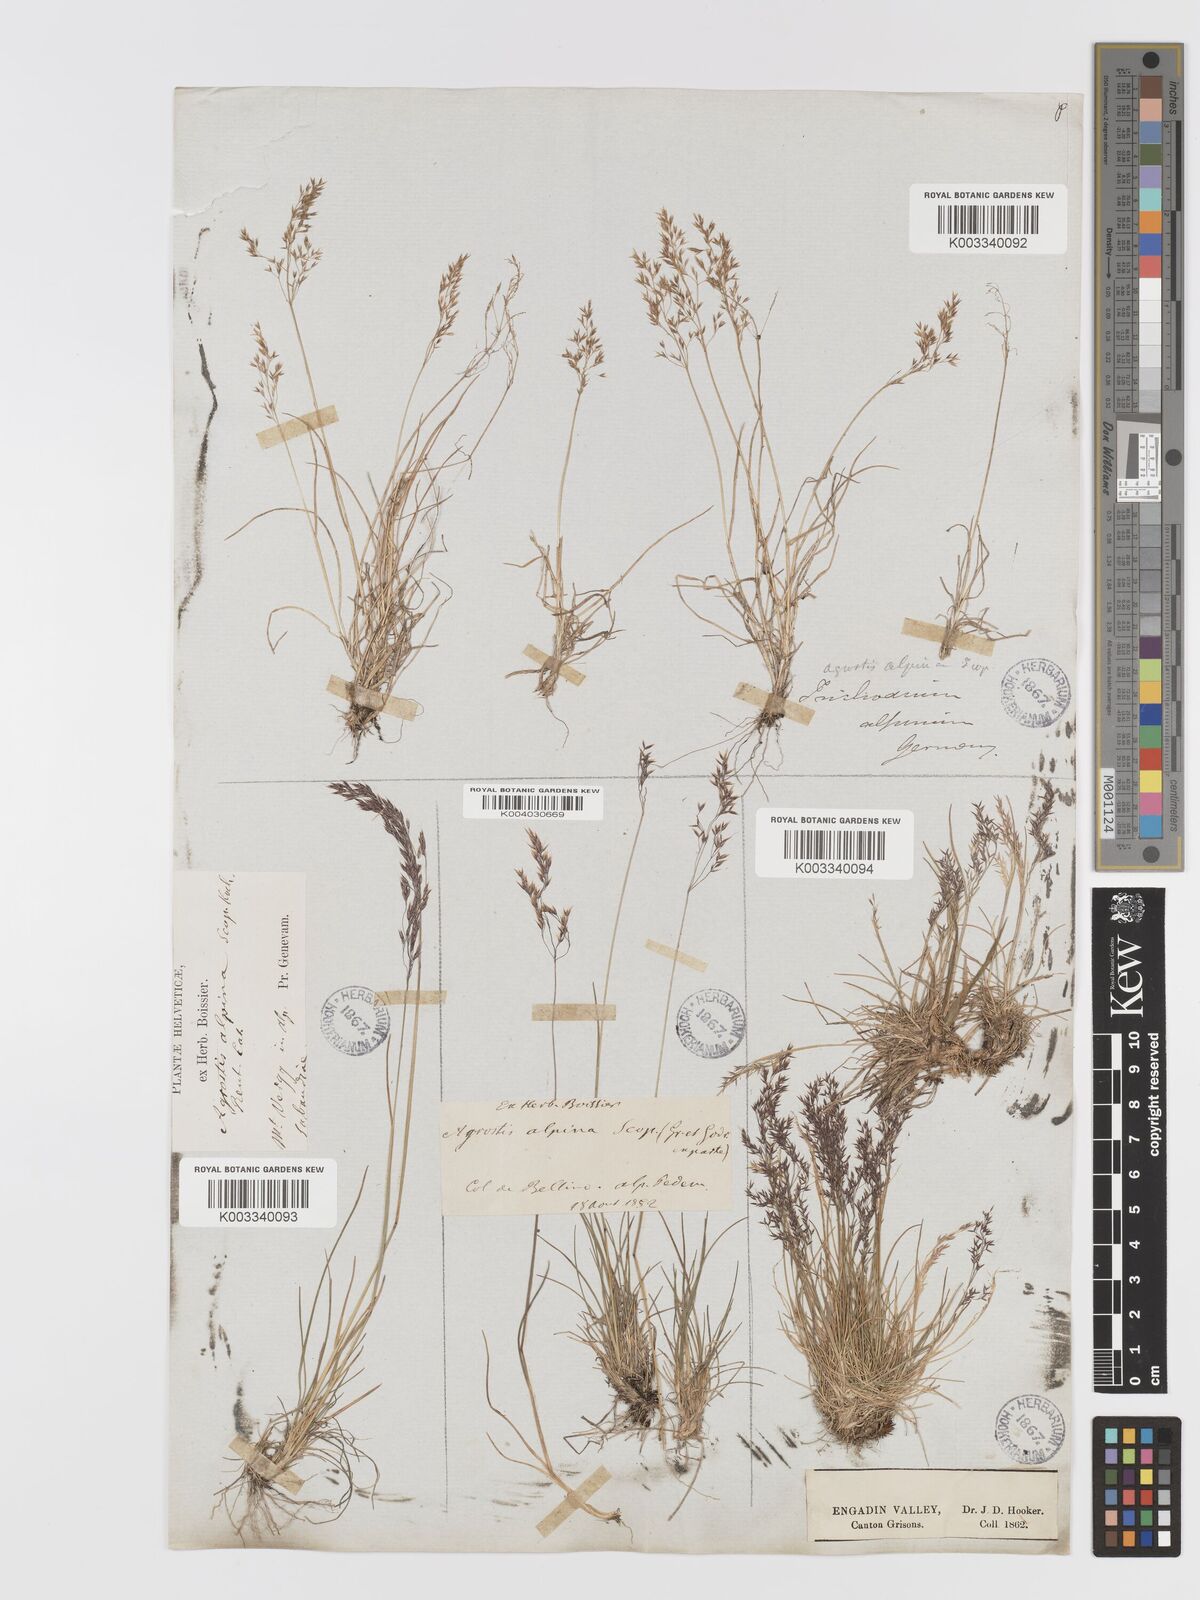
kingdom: Plantae
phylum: Tracheophyta
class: Liliopsida
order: Poales
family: Poaceae
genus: Agrostis
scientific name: Agrostis rupestris
